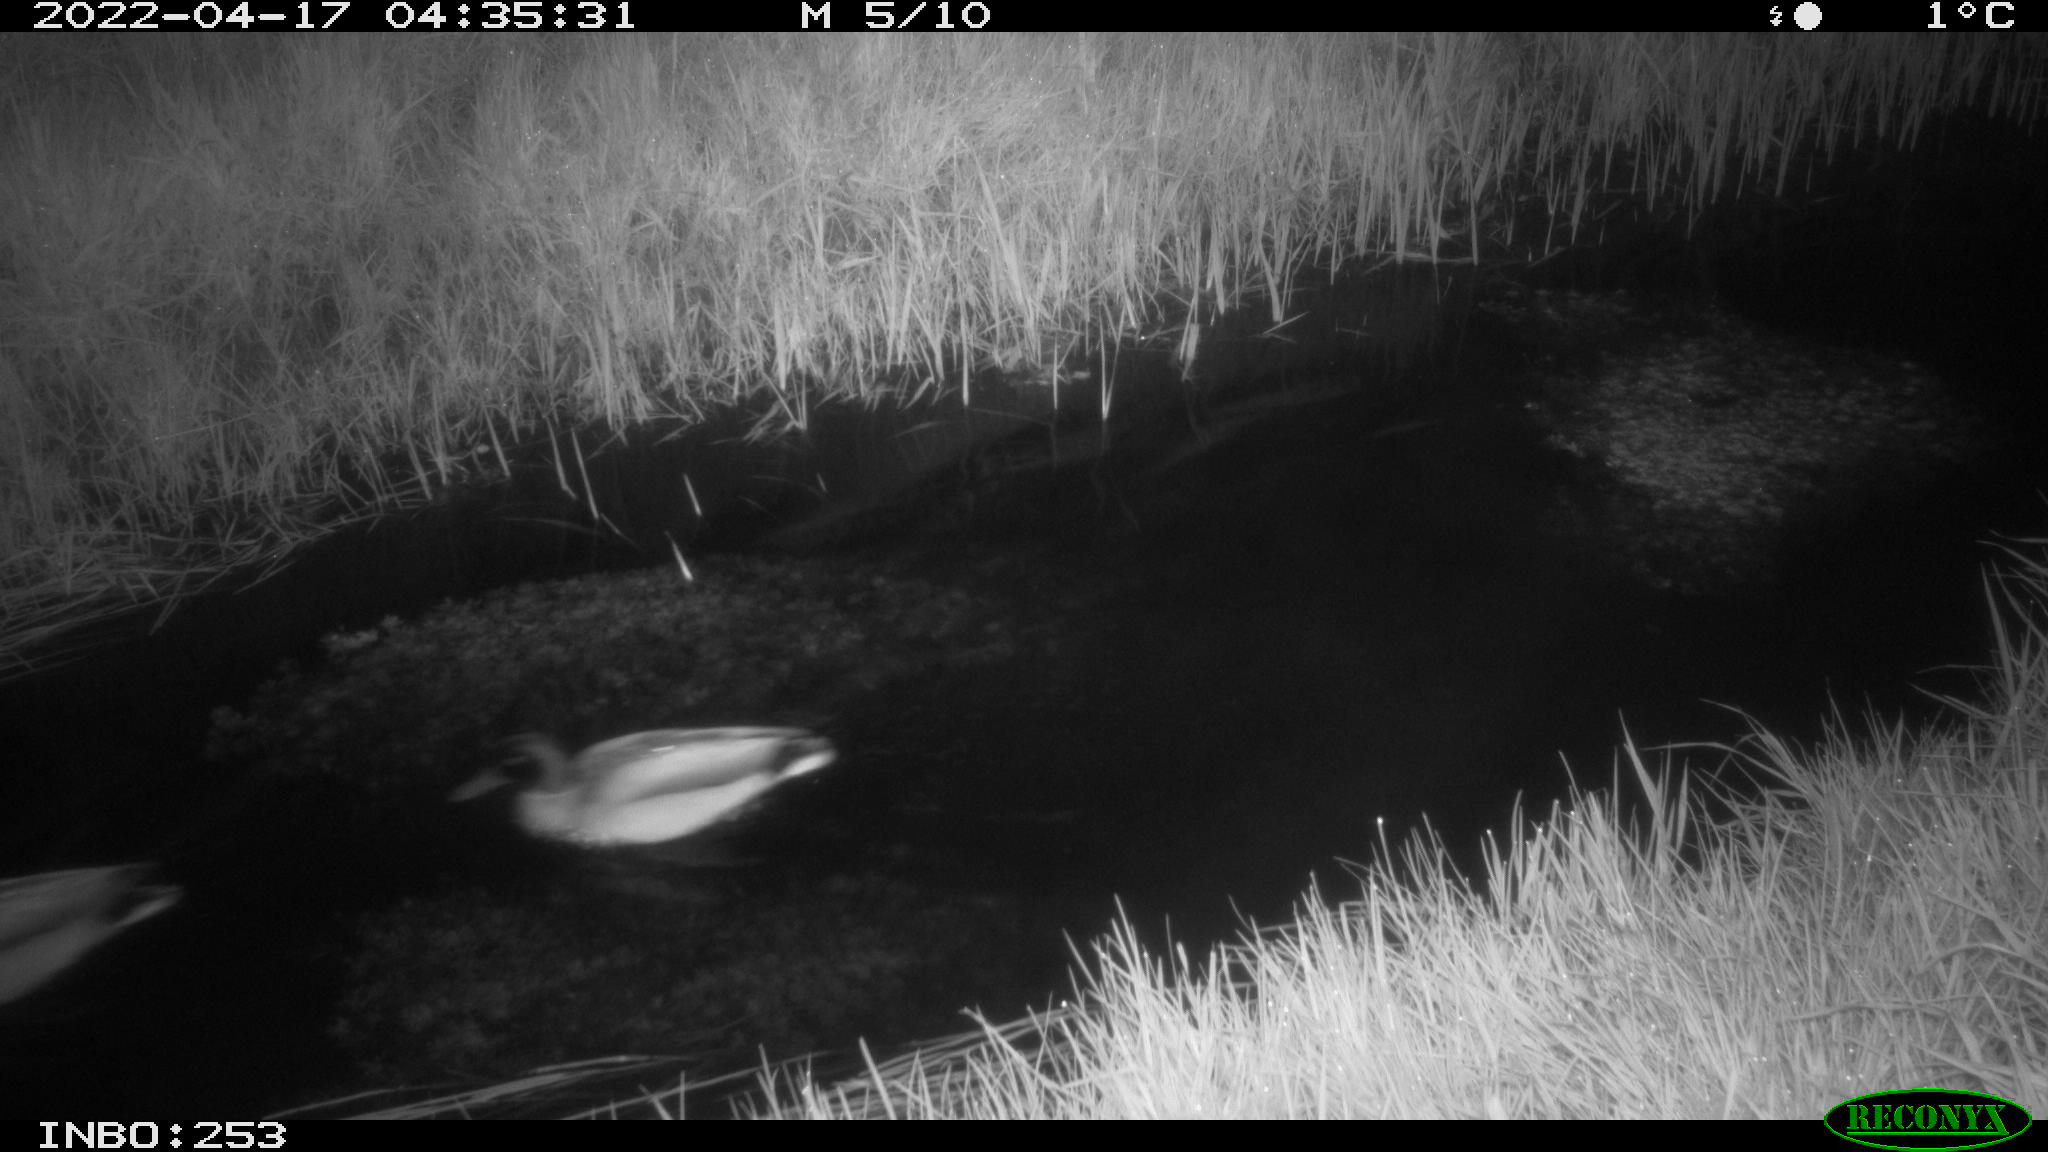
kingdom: Animalia
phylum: Chordata
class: Aves
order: Anseriformes
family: Anatidae
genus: Anas
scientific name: Anas platyrhynchos
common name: Mallard
